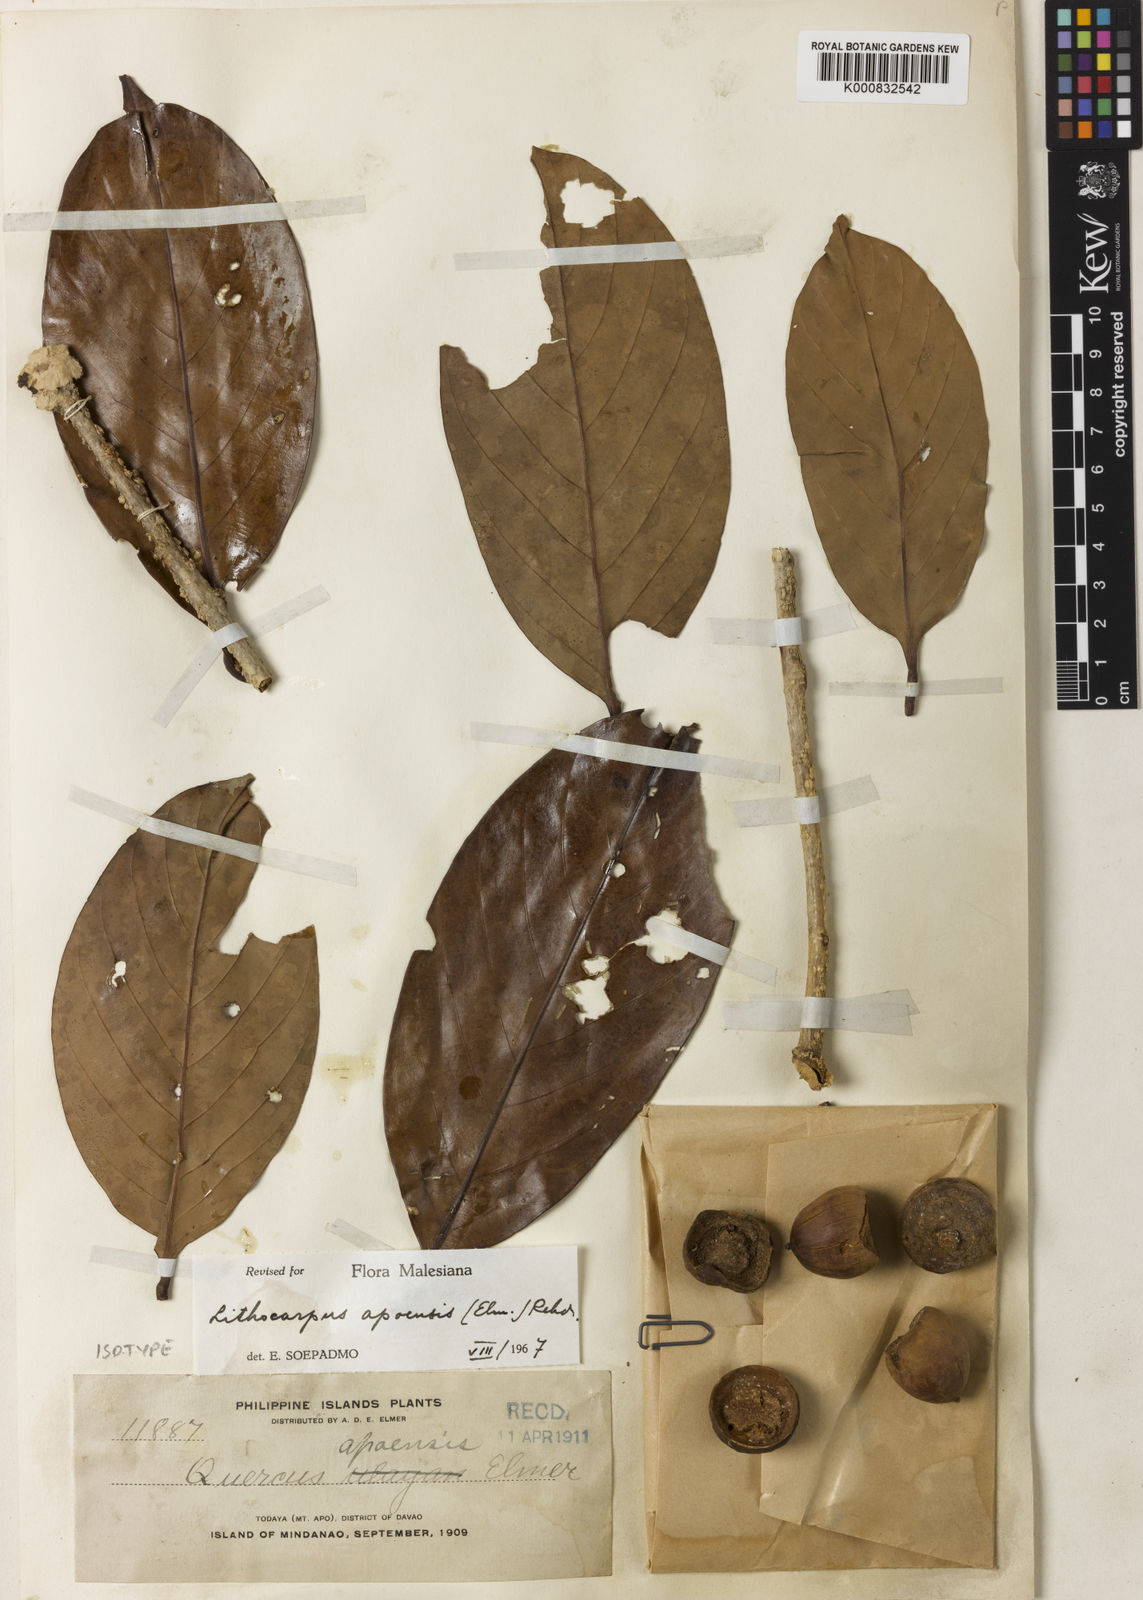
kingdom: Plantae
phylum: Tracheophyta
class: Magnoliopsida
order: Fagales
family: Fagaceae
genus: Lithocarpus
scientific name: Lithocarpus apoensis
